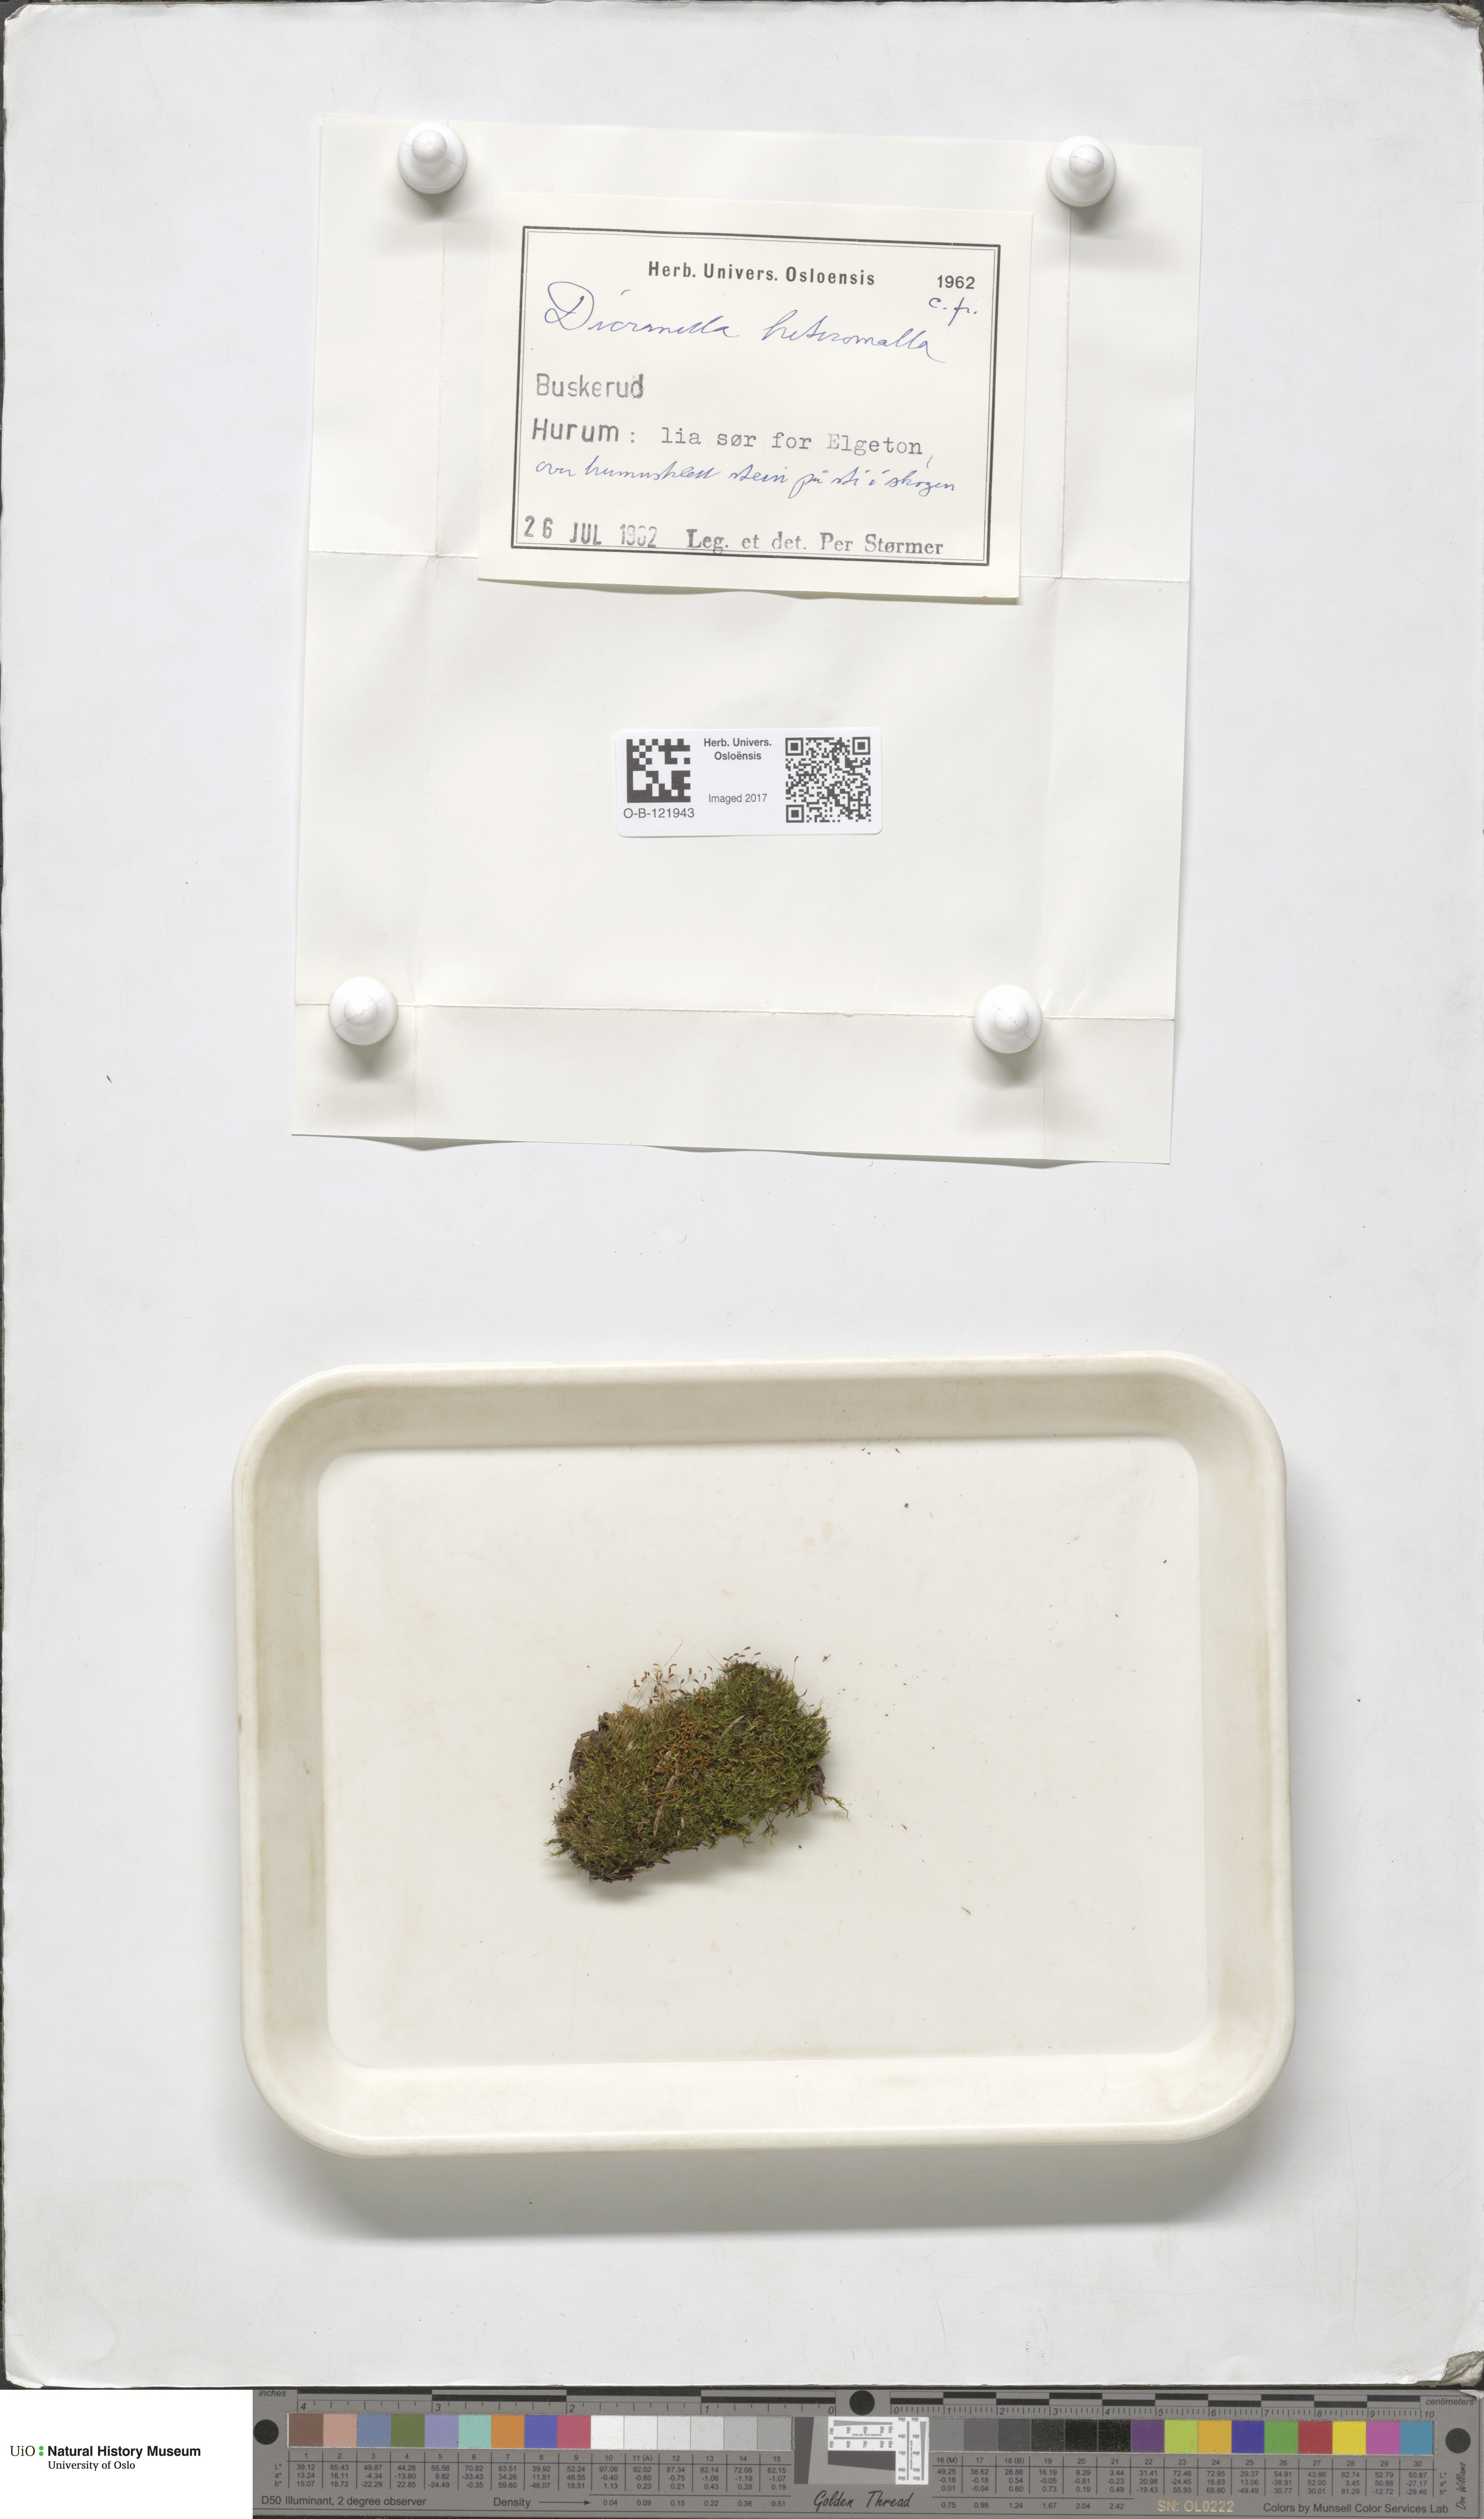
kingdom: Plantae
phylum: Bryophyta
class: Bryopsida
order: Dicranales
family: Dicranellaceae
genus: Dicranella
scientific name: Dicranella heteromalla
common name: Silky forklet moss
